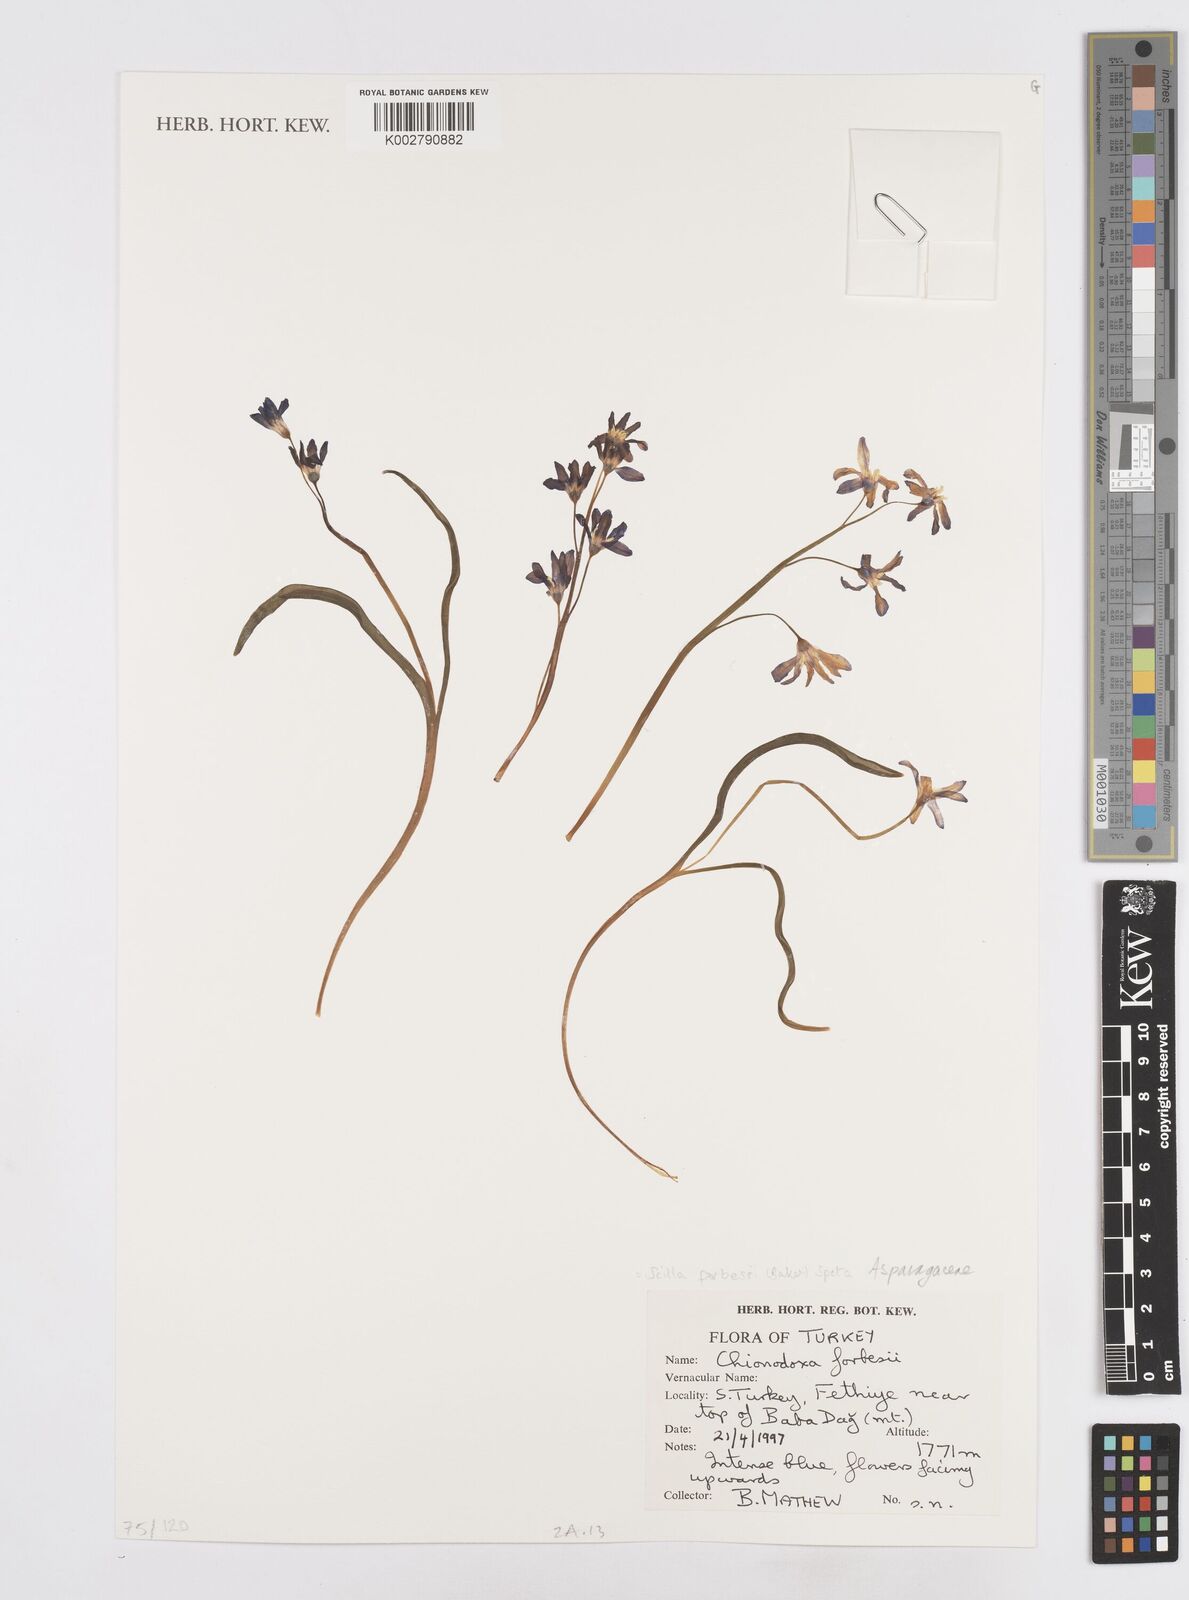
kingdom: Plantae
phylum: Tracheophyta
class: Liliopsida
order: Asparagales
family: Asparagaceae
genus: Scilla
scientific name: Scilla forbesii
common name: Glory-of-the-snow
